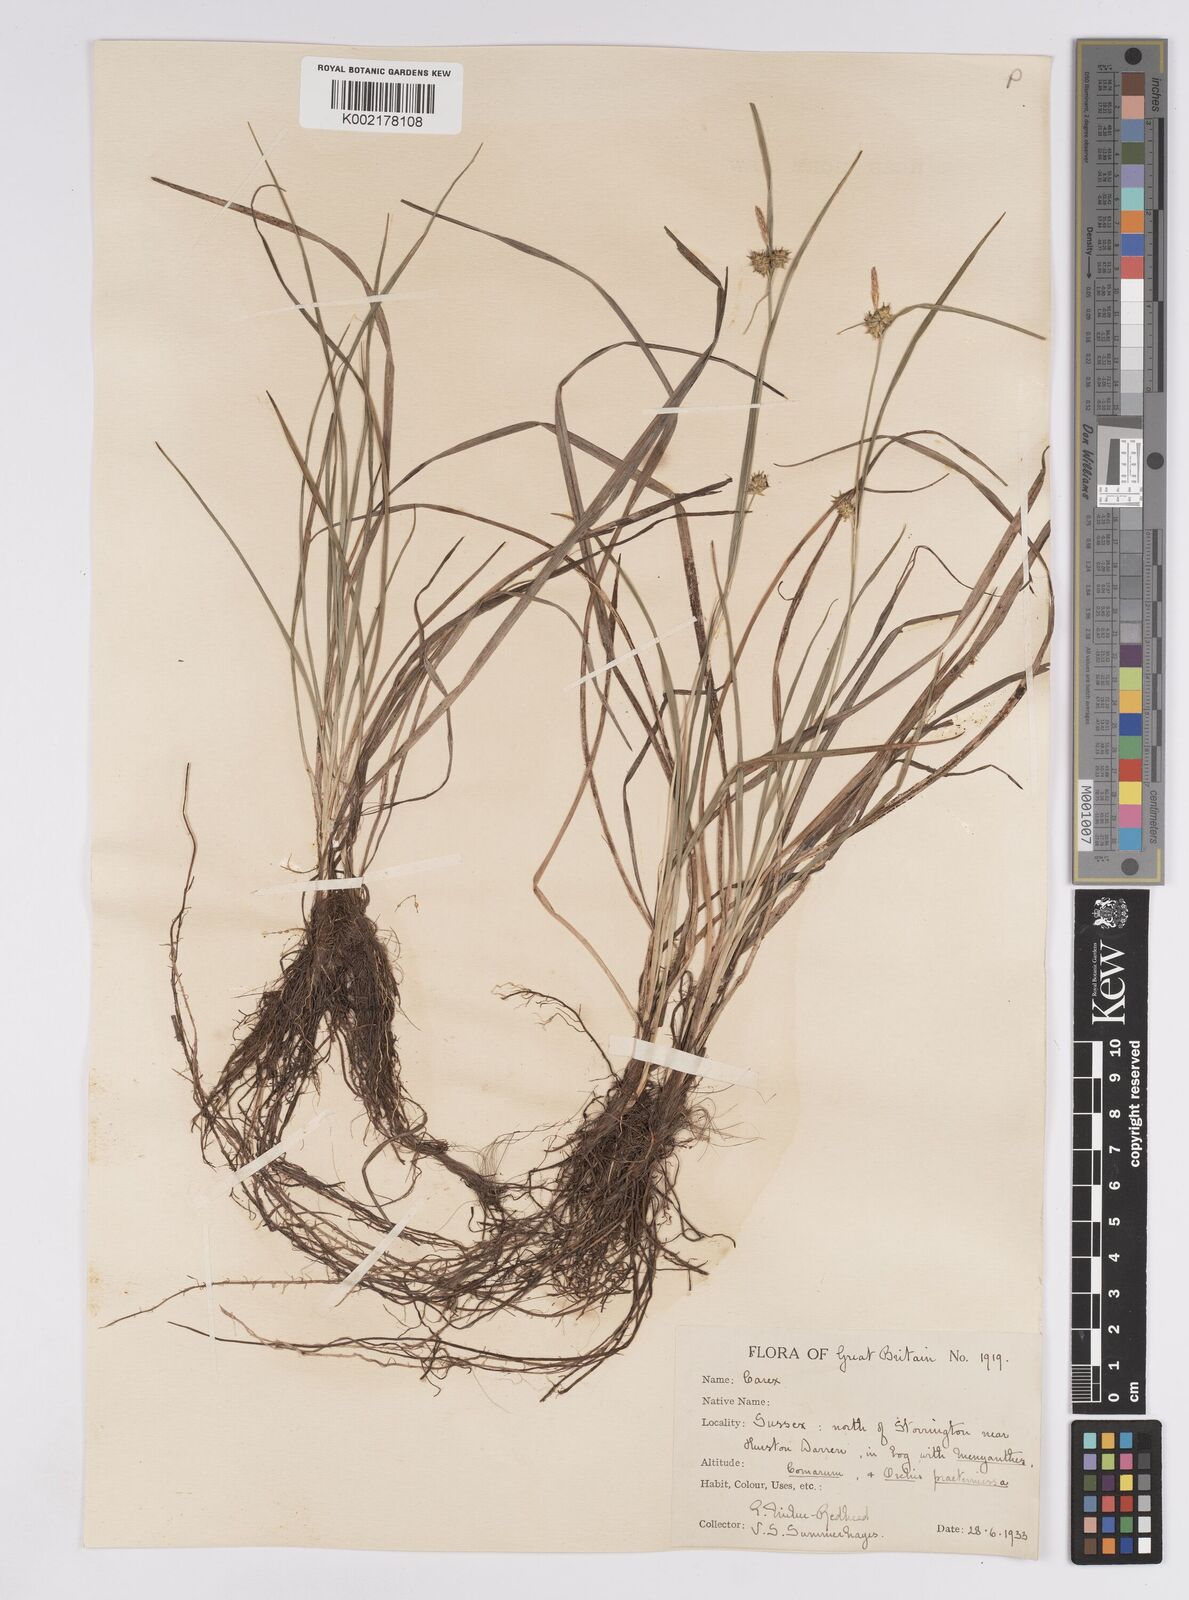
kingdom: Plantae
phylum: Tracheophyta
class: Liliopsida
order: Poales
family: Cyperaceae
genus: Carex
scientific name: Carex demissa
